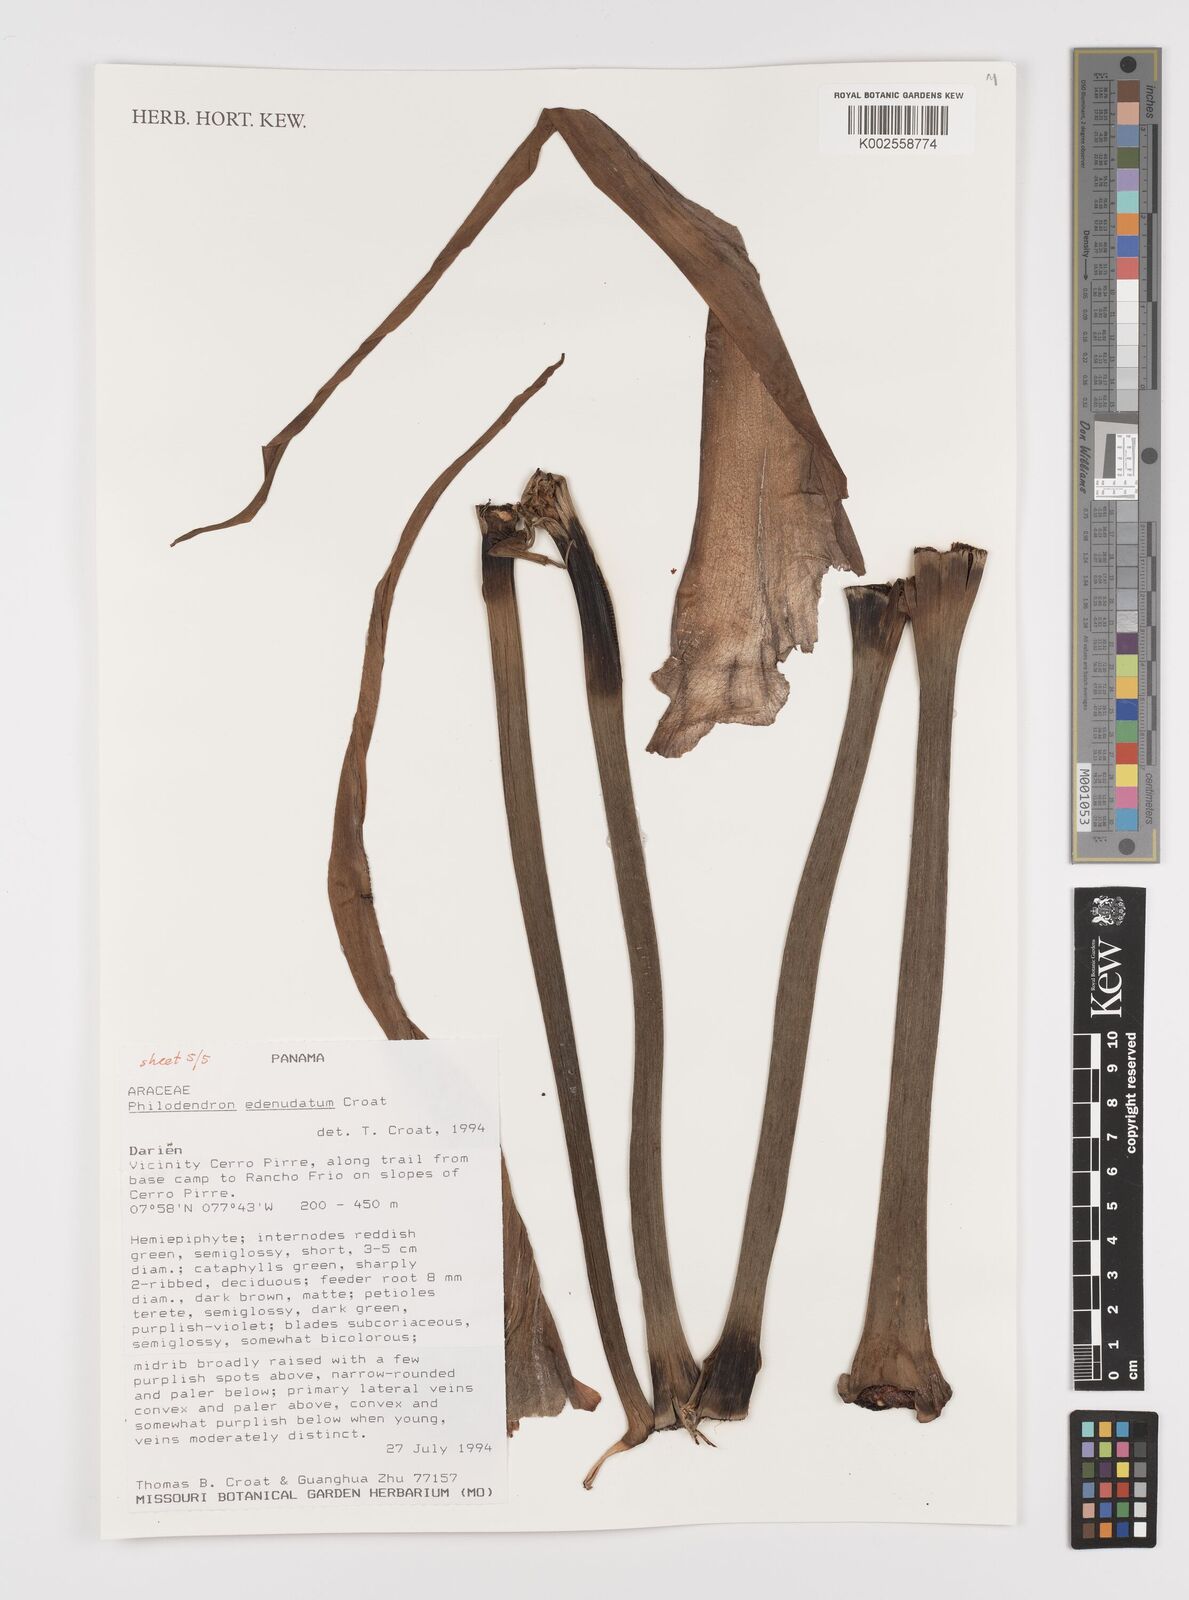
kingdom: Plantae
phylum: Tracheophyta
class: Liliopsida
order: Alismatales
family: Araceae
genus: Philodendron
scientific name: Philodendron edenudatum
